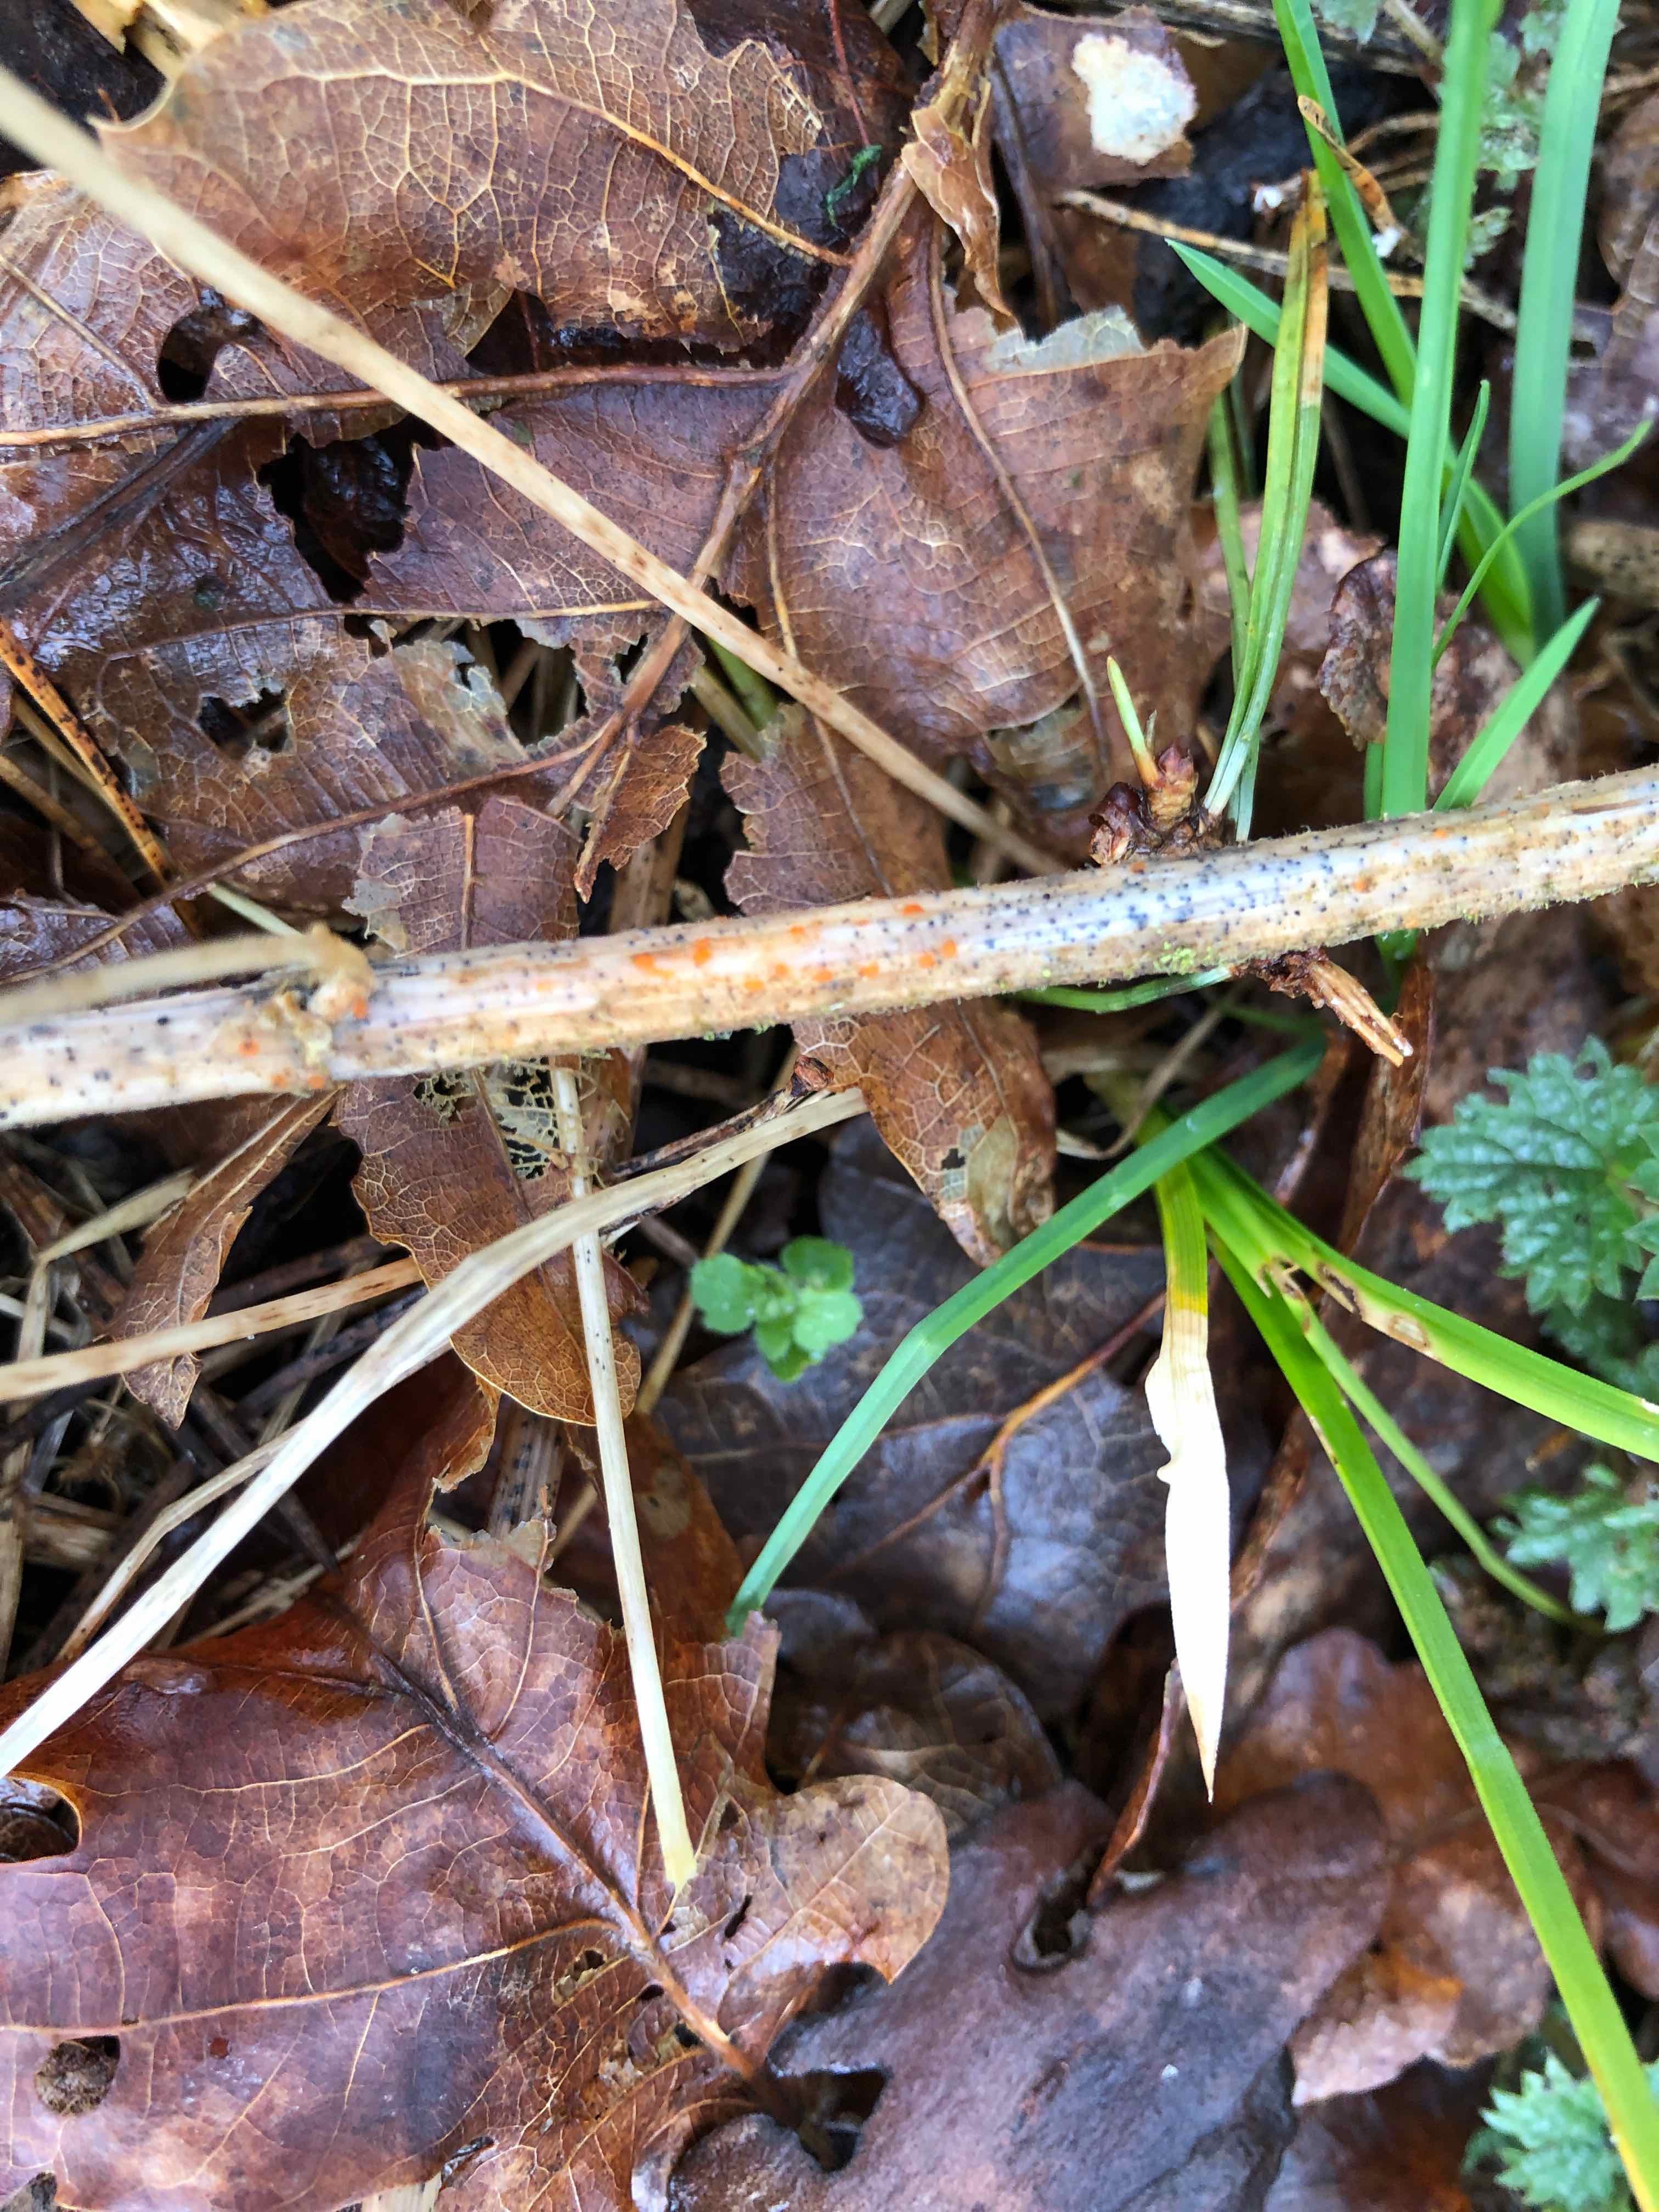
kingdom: Fungi
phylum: Ascomycota
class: Leotiomycetes
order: Helotiales
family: Calloriaceae
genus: Calloria
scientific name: Calloria urticae
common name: nælde-orangeskive
